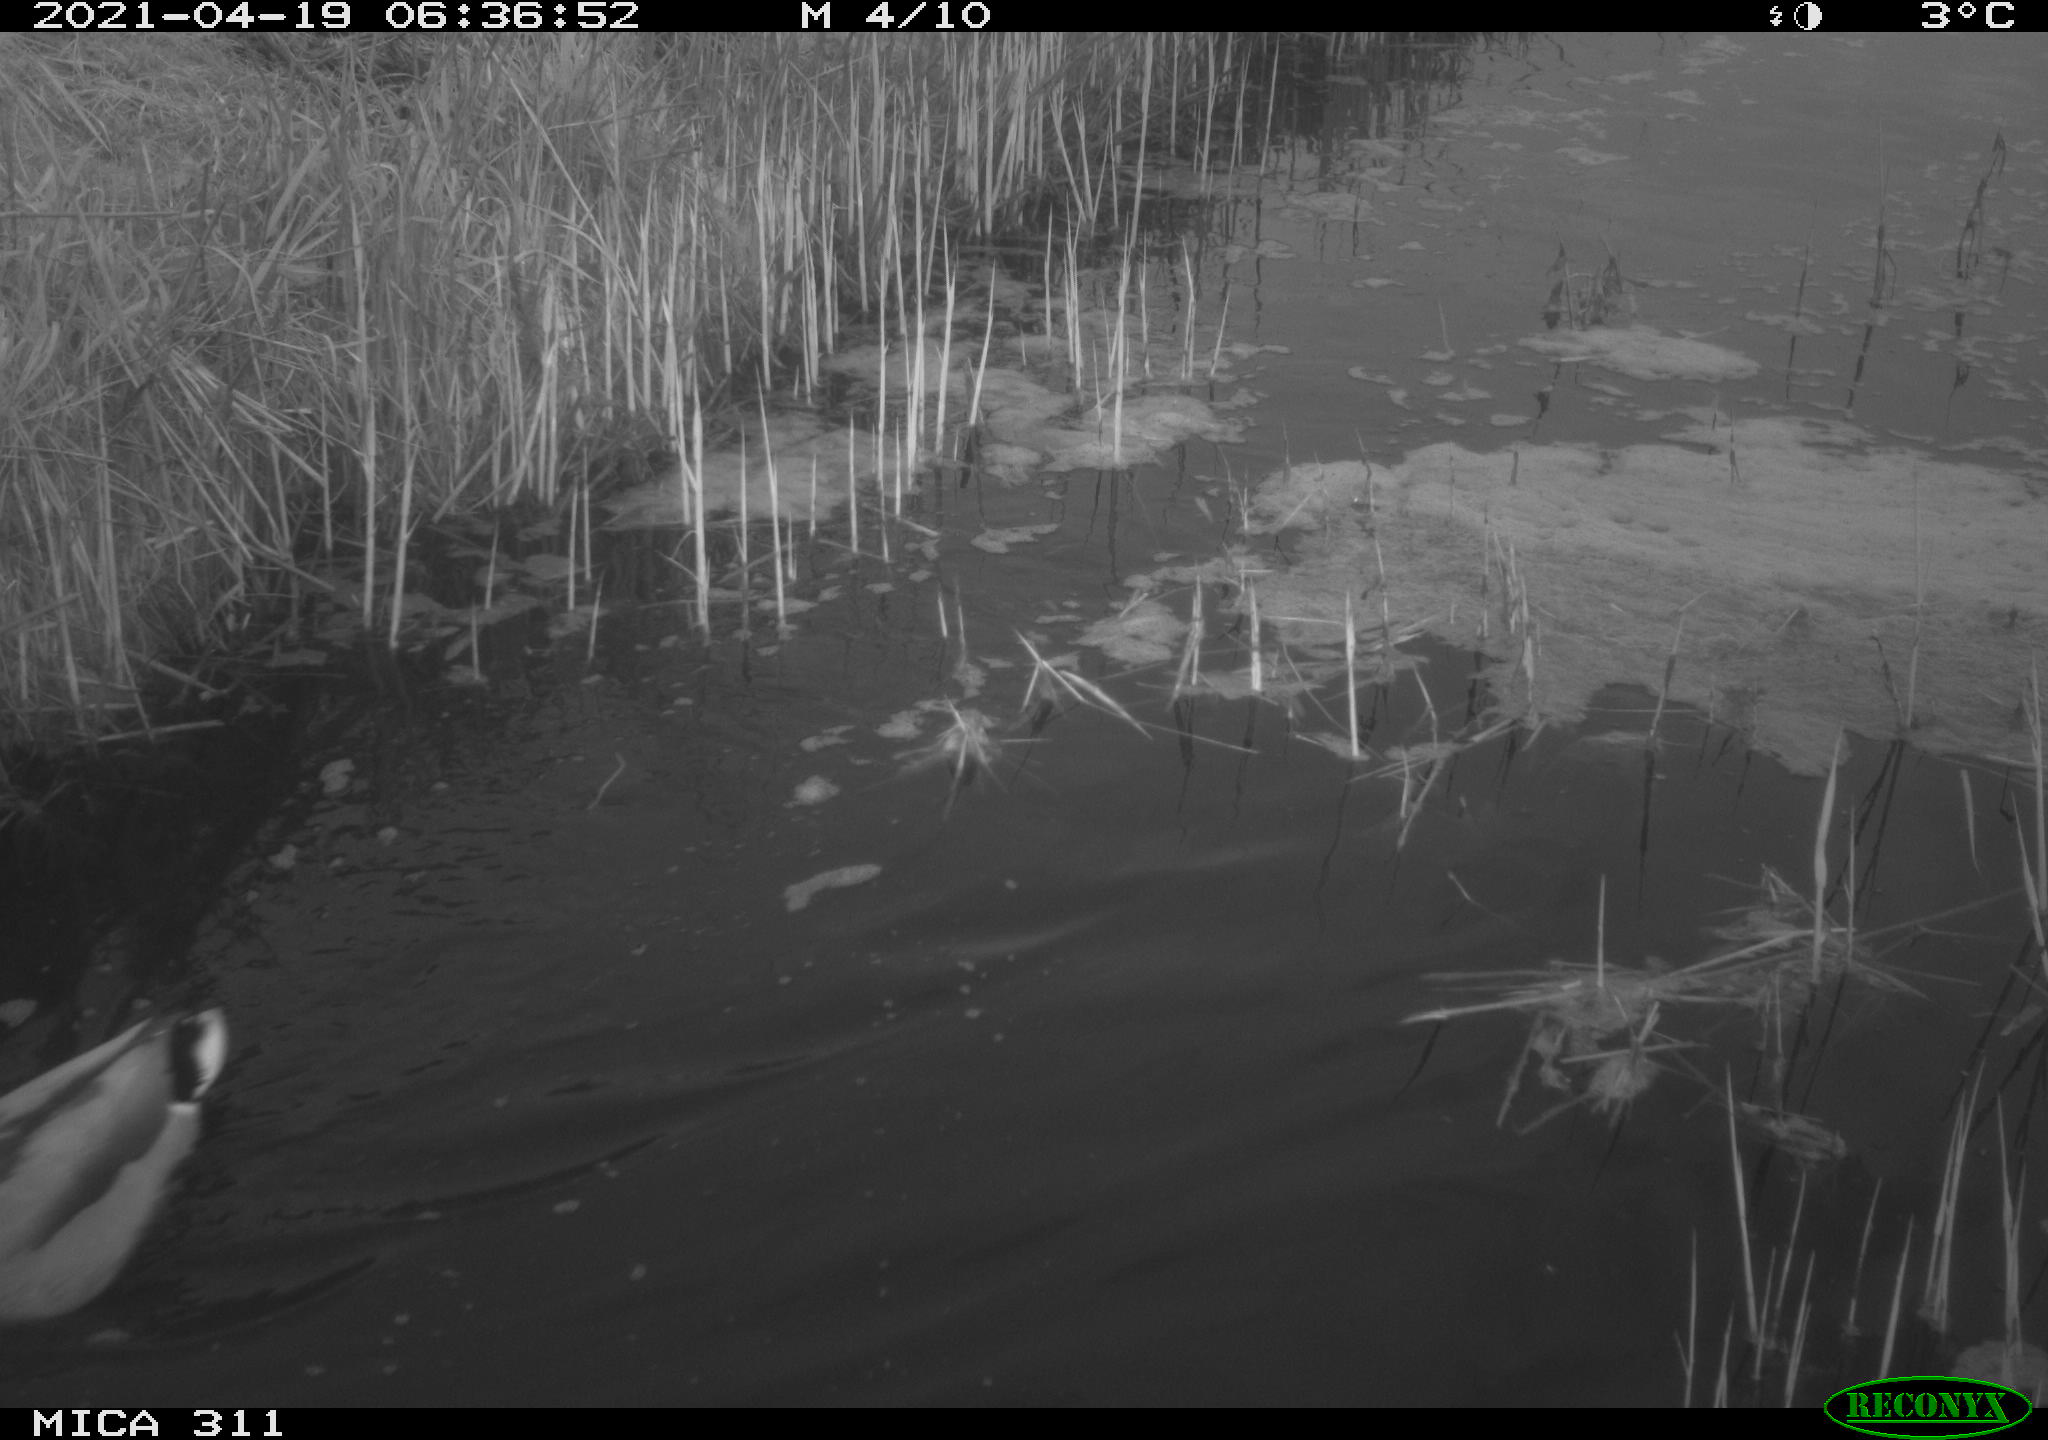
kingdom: Animalia
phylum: Chordata
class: Aves
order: Anseriformes
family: Anatidae
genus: Anas
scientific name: Anas platyrhynchos
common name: Mallard
